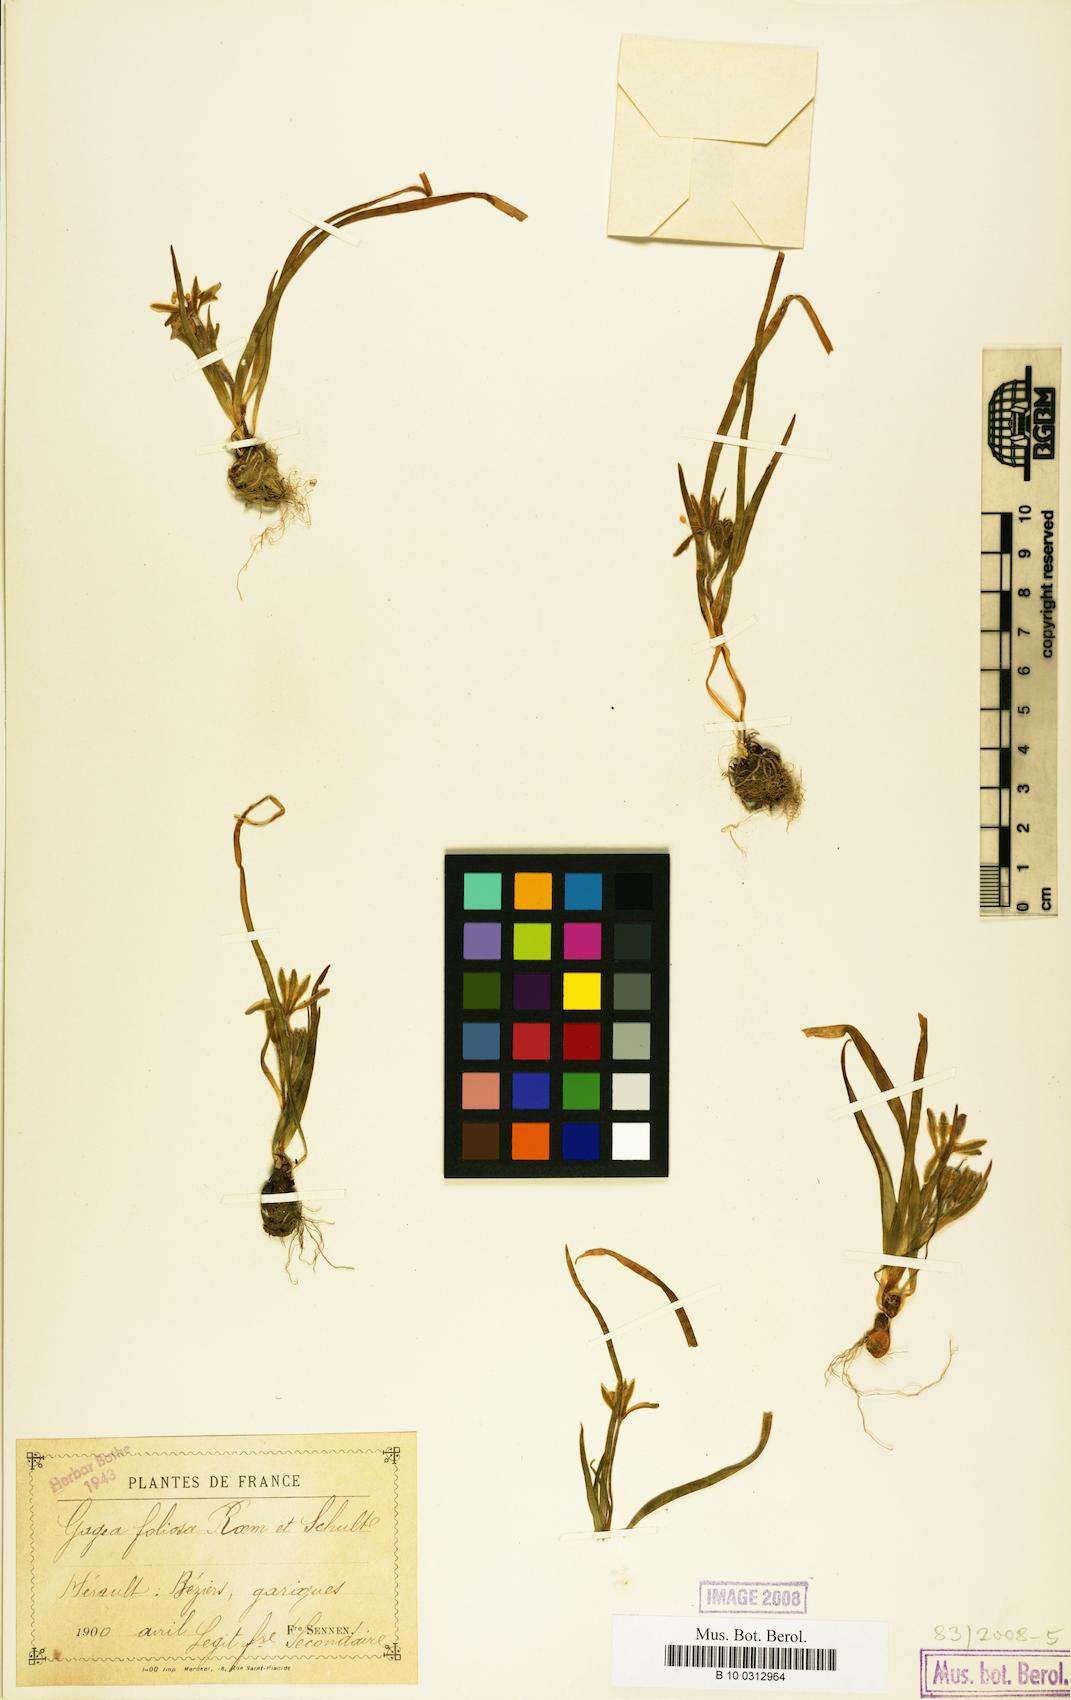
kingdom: Plantae
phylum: Tracheophyta
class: Liliopsida
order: Liliales
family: Liliaceae
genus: Gagea
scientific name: Gagea foliosa
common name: Leafy gagea
